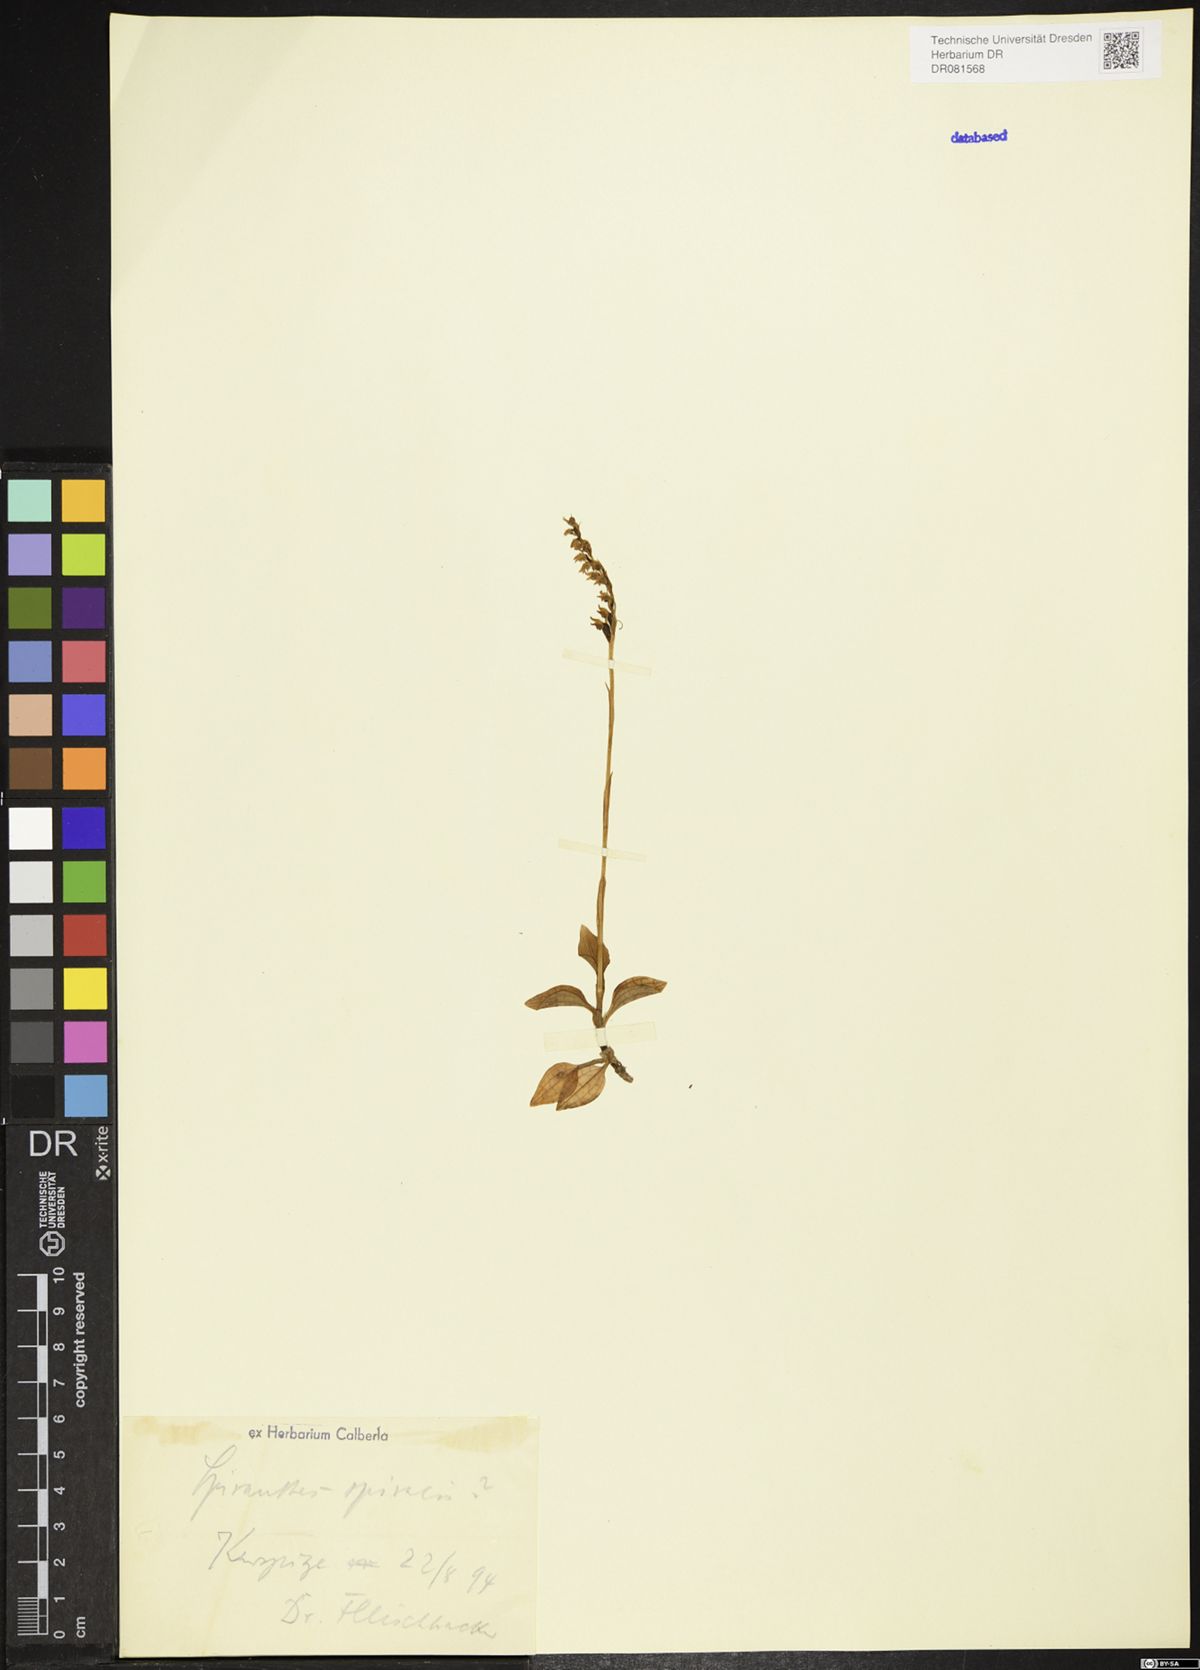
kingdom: Plantae
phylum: Tracheophyta
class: Liliopsida
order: Asparagales
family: Orchidaceae
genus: Spiranthes
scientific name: Spiranthes spiralis
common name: Autumn lady's-tresses
